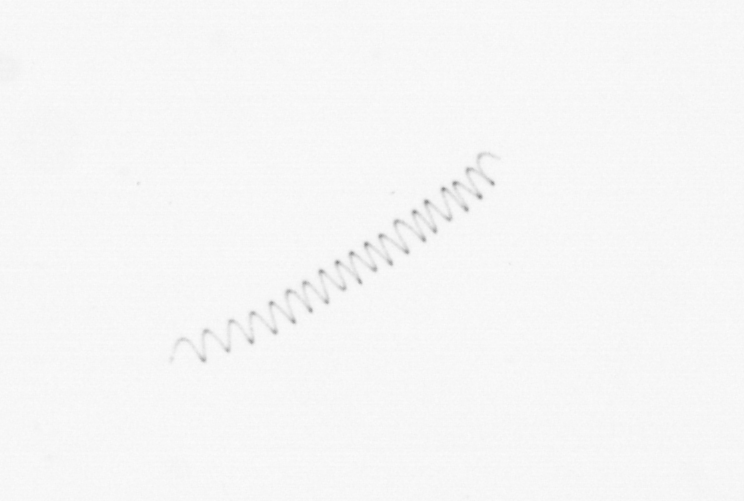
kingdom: Chromista
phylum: Ochrophyta
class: Bacillariophyceae
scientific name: Bacillariophyceae
